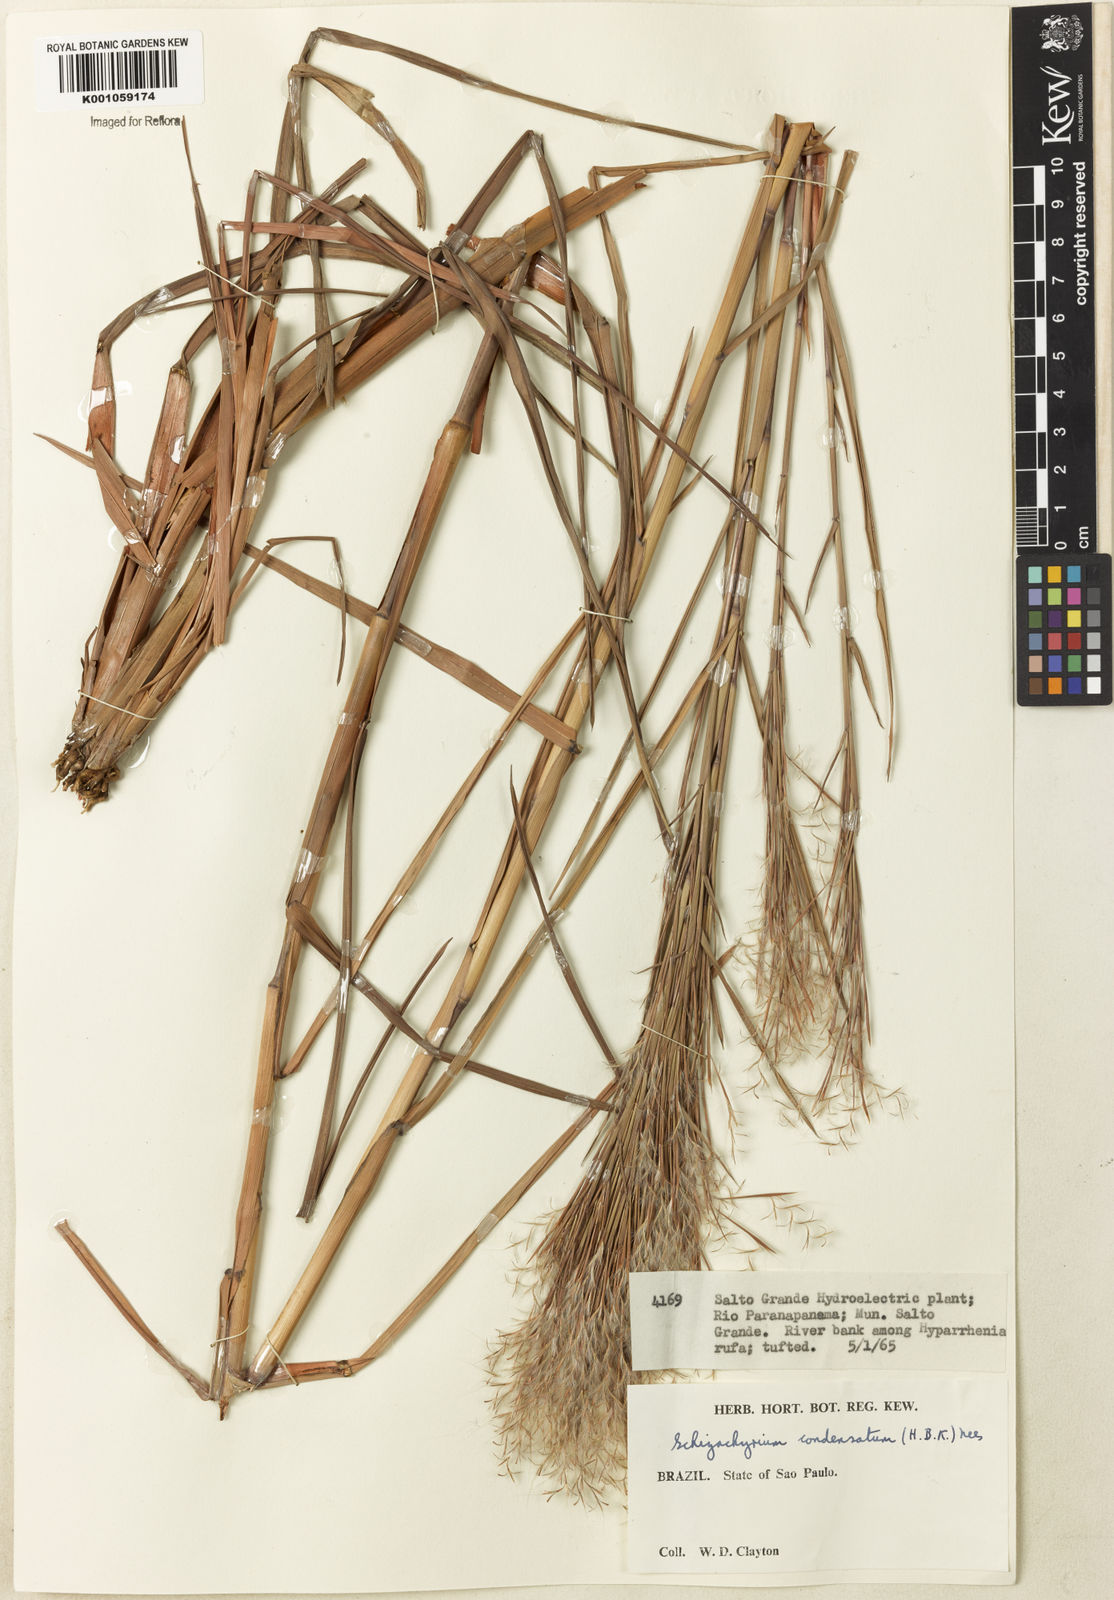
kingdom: Plantae
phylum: Tracheophyta
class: Liliopsida
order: Poales
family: Poaceae
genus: Schizachyrium
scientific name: Schizachyrium condensatum
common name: Bush beardgrass
